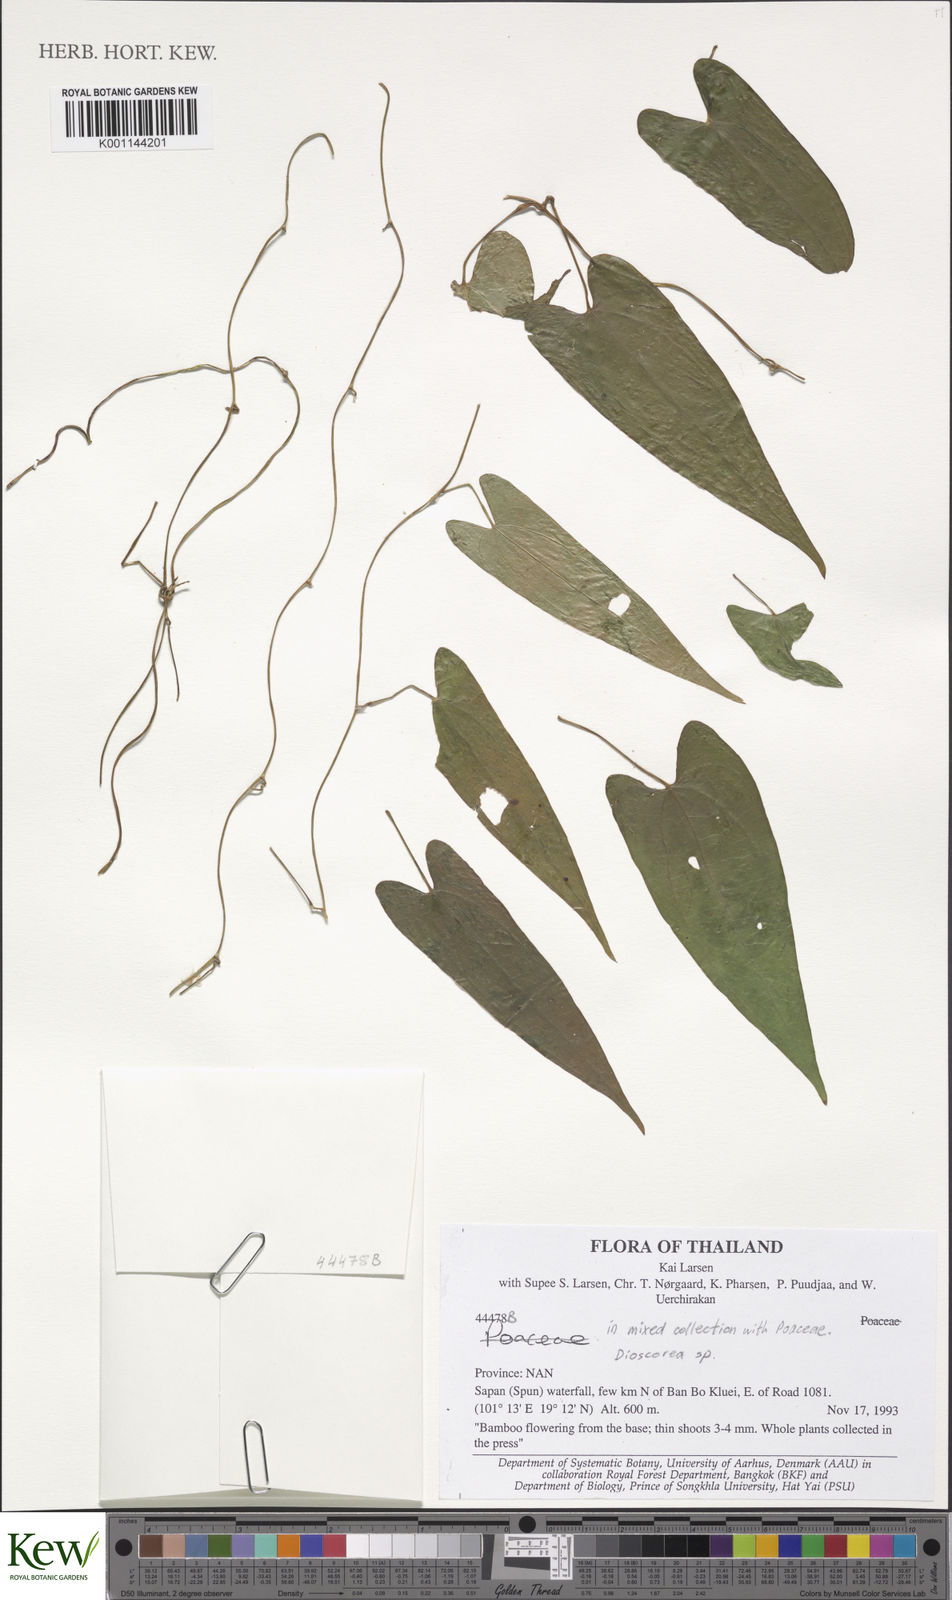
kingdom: Plantae
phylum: Tracheophyta
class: Liliopsida
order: Dioscoreales
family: Dioscoreaceae
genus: Dioscorea
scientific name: Dioscorea
